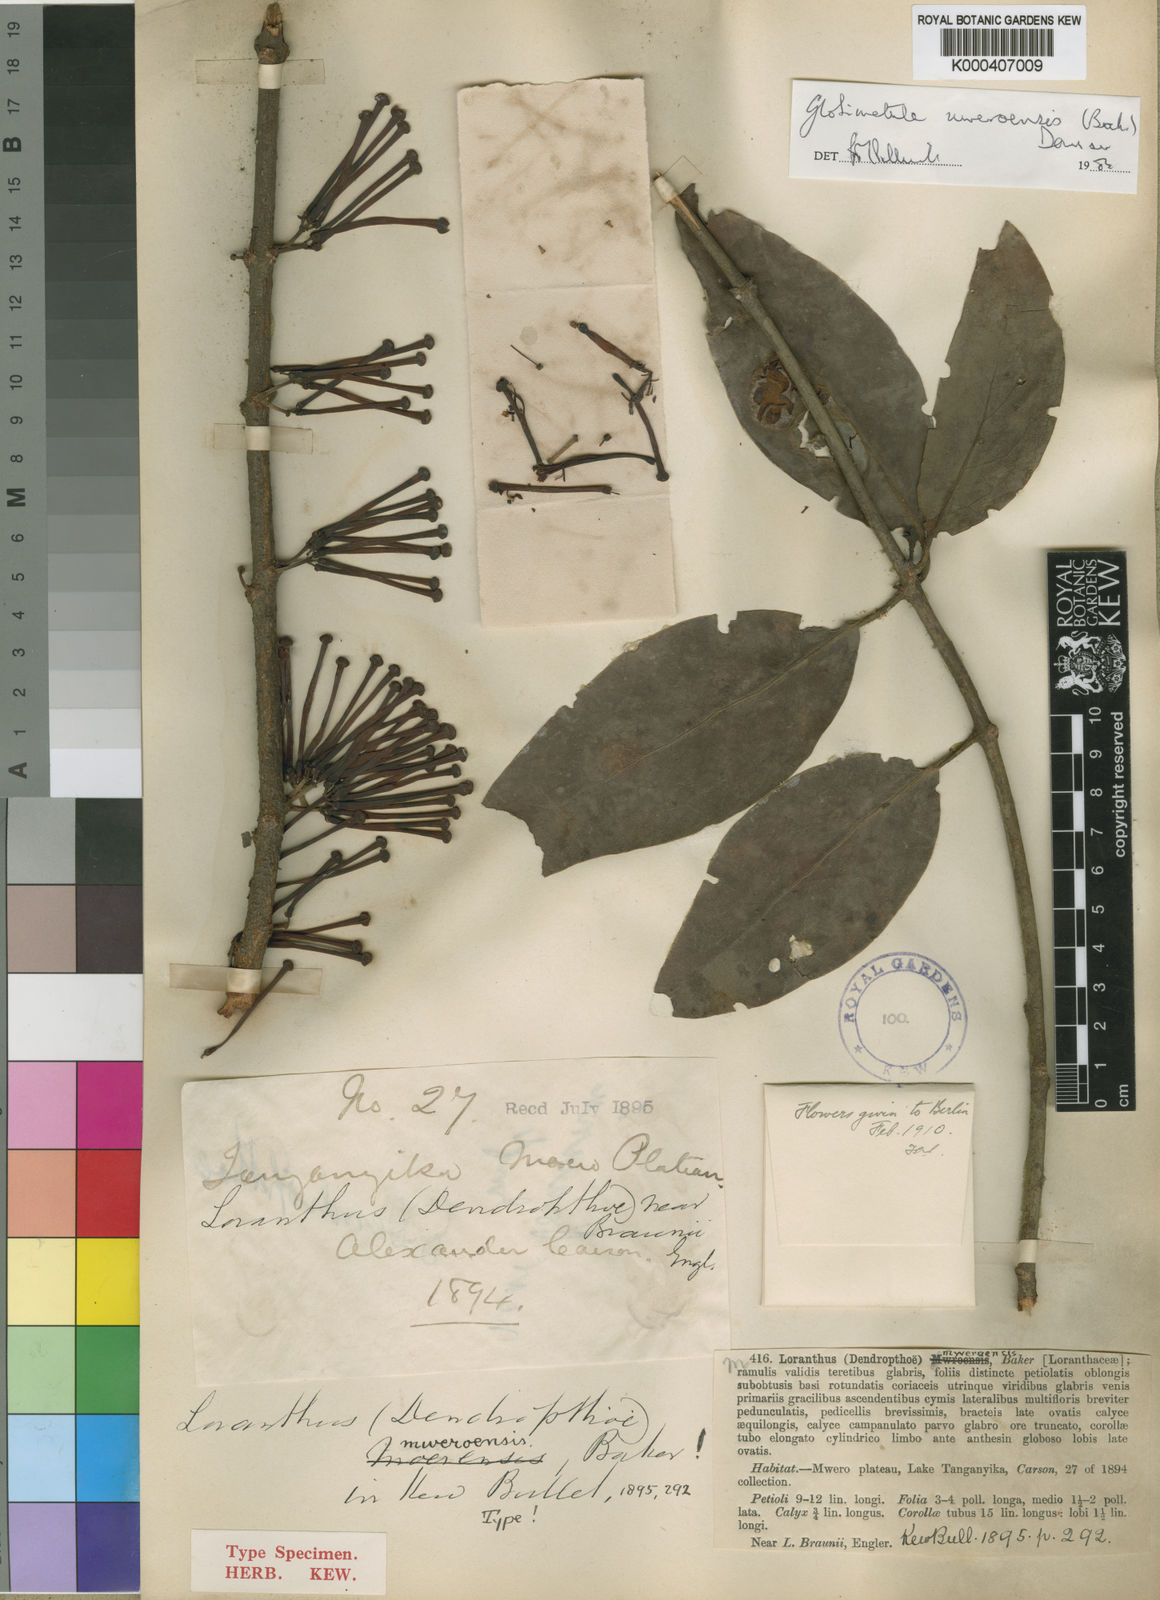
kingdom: Plantae
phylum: Tracheophyta
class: Magnoliopsida
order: Santalales
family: Loranthaceae
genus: Globimetula
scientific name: Globimetula mweroensis
